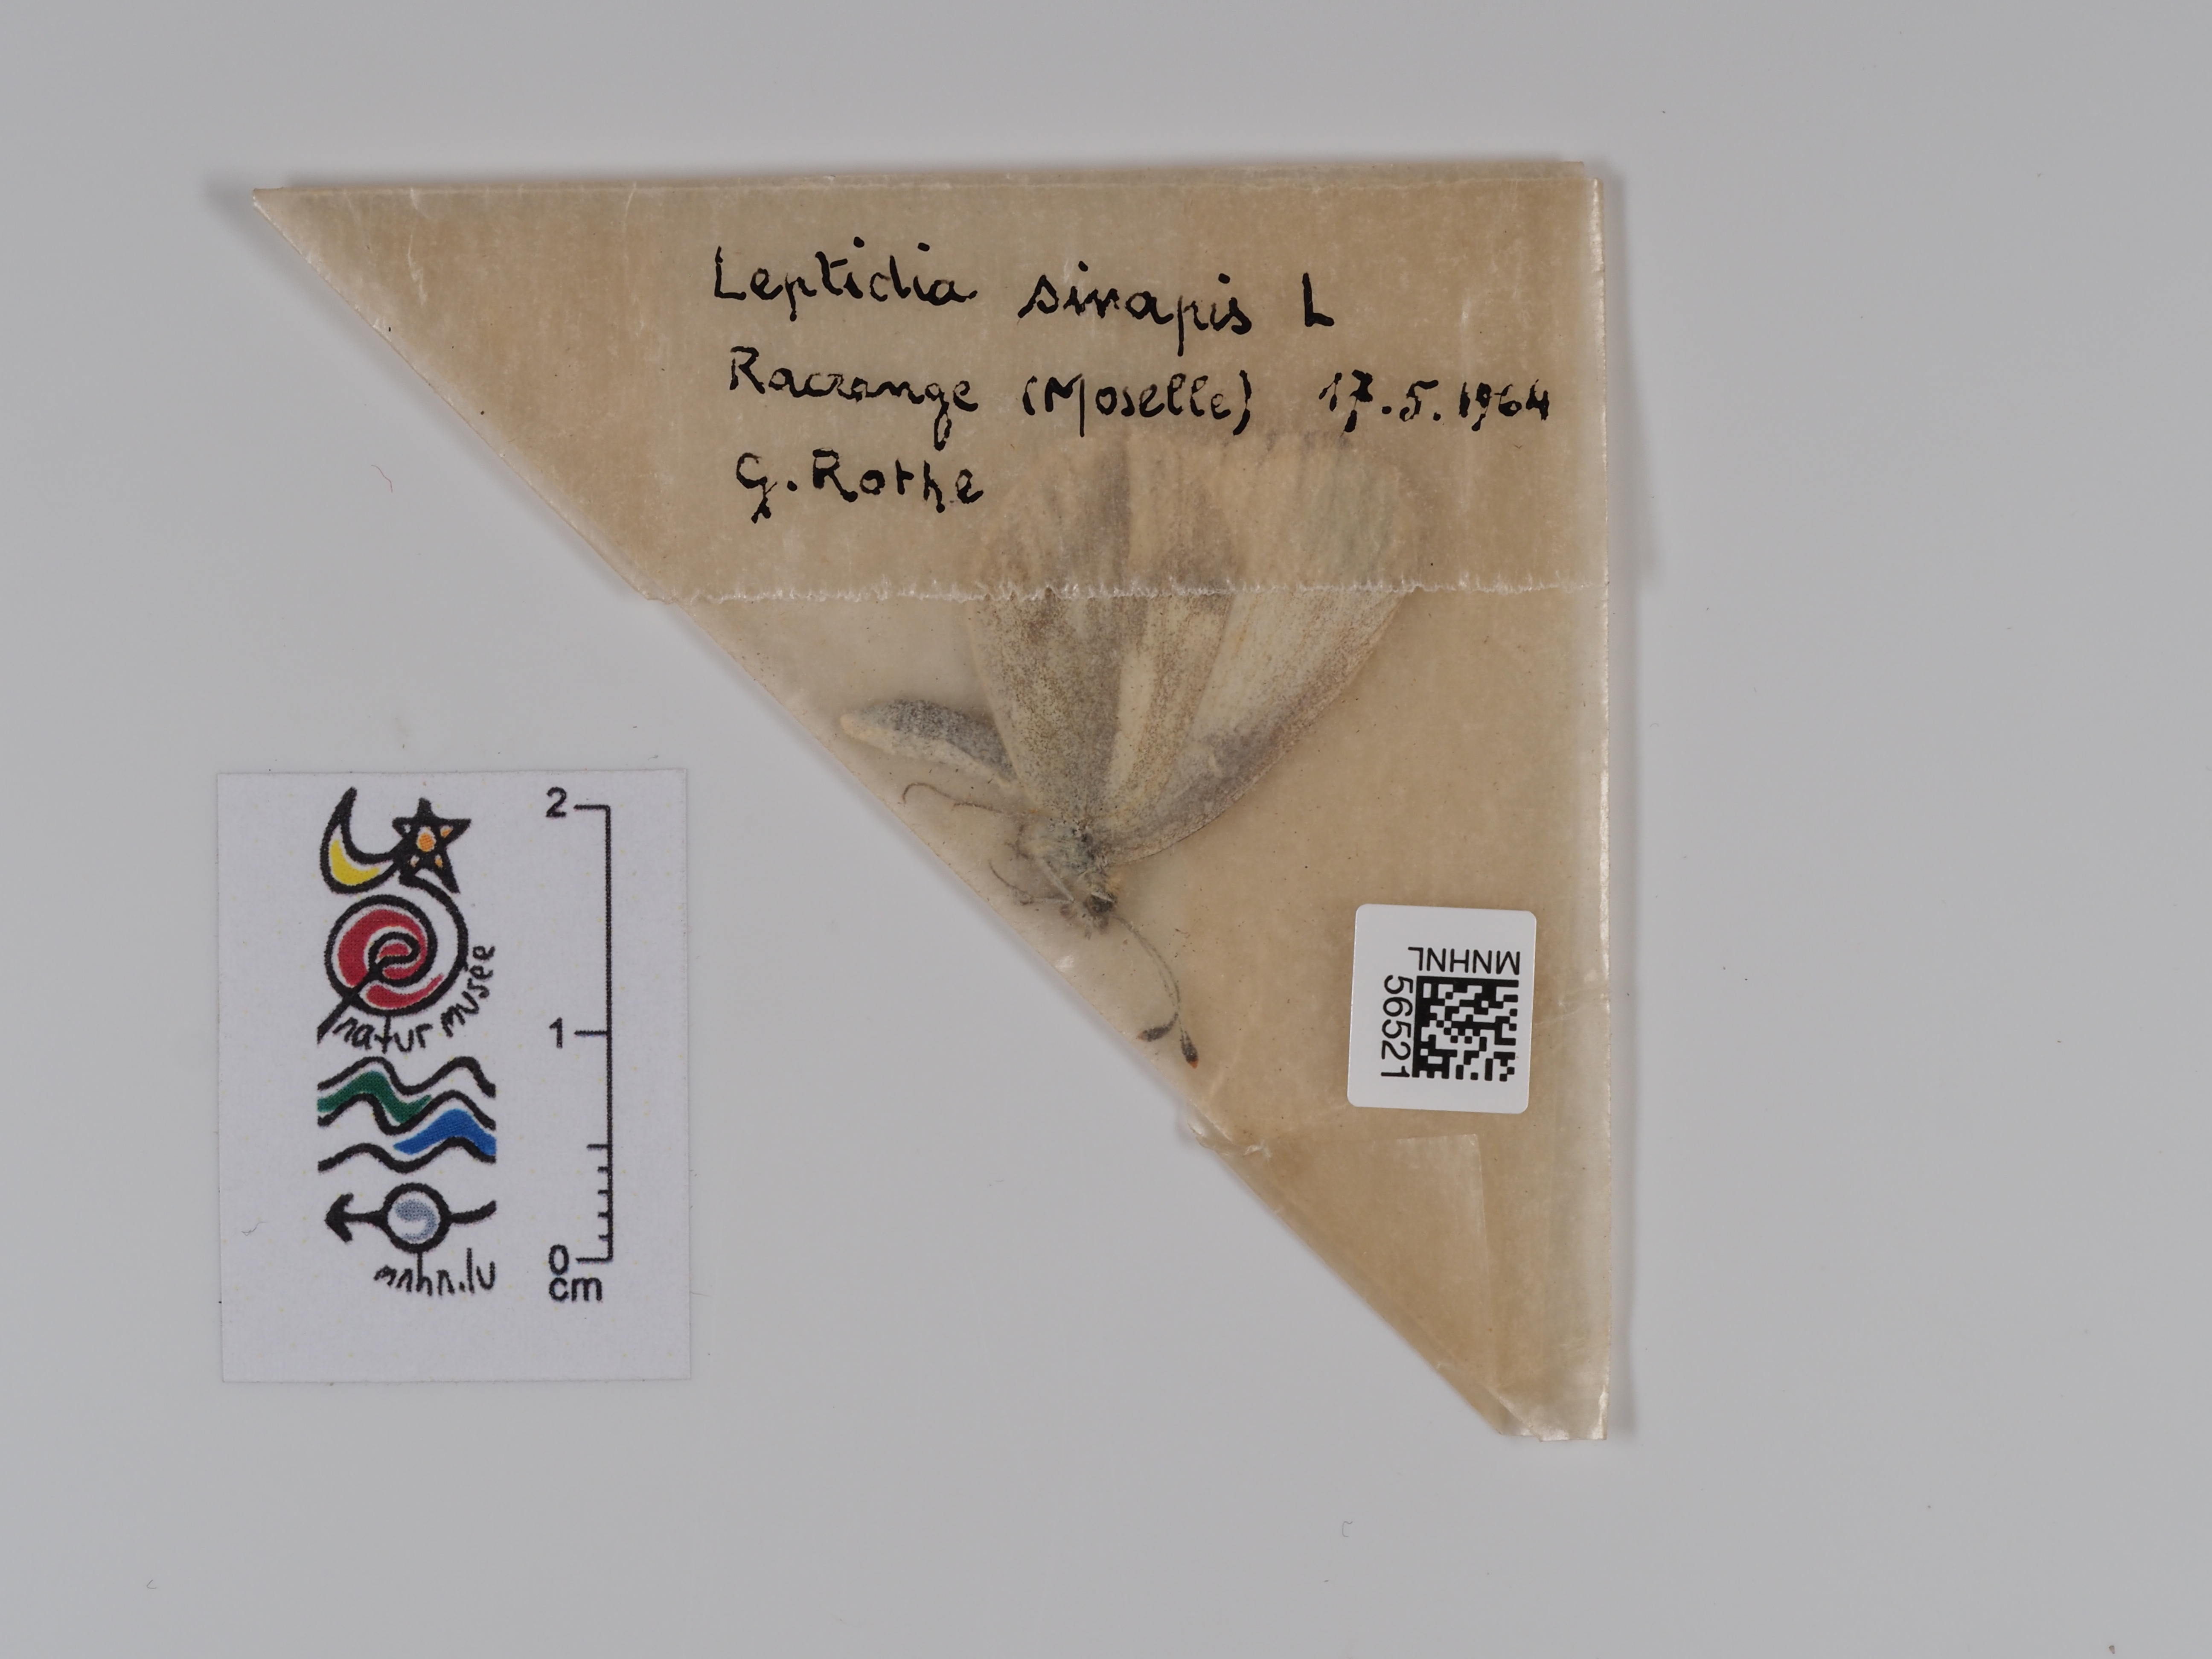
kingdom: Animalia
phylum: Arthropoda
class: Insecta
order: Lepidoptera
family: Pieridae
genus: Leptidea
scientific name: Leptidea sinapis
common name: Wood white
